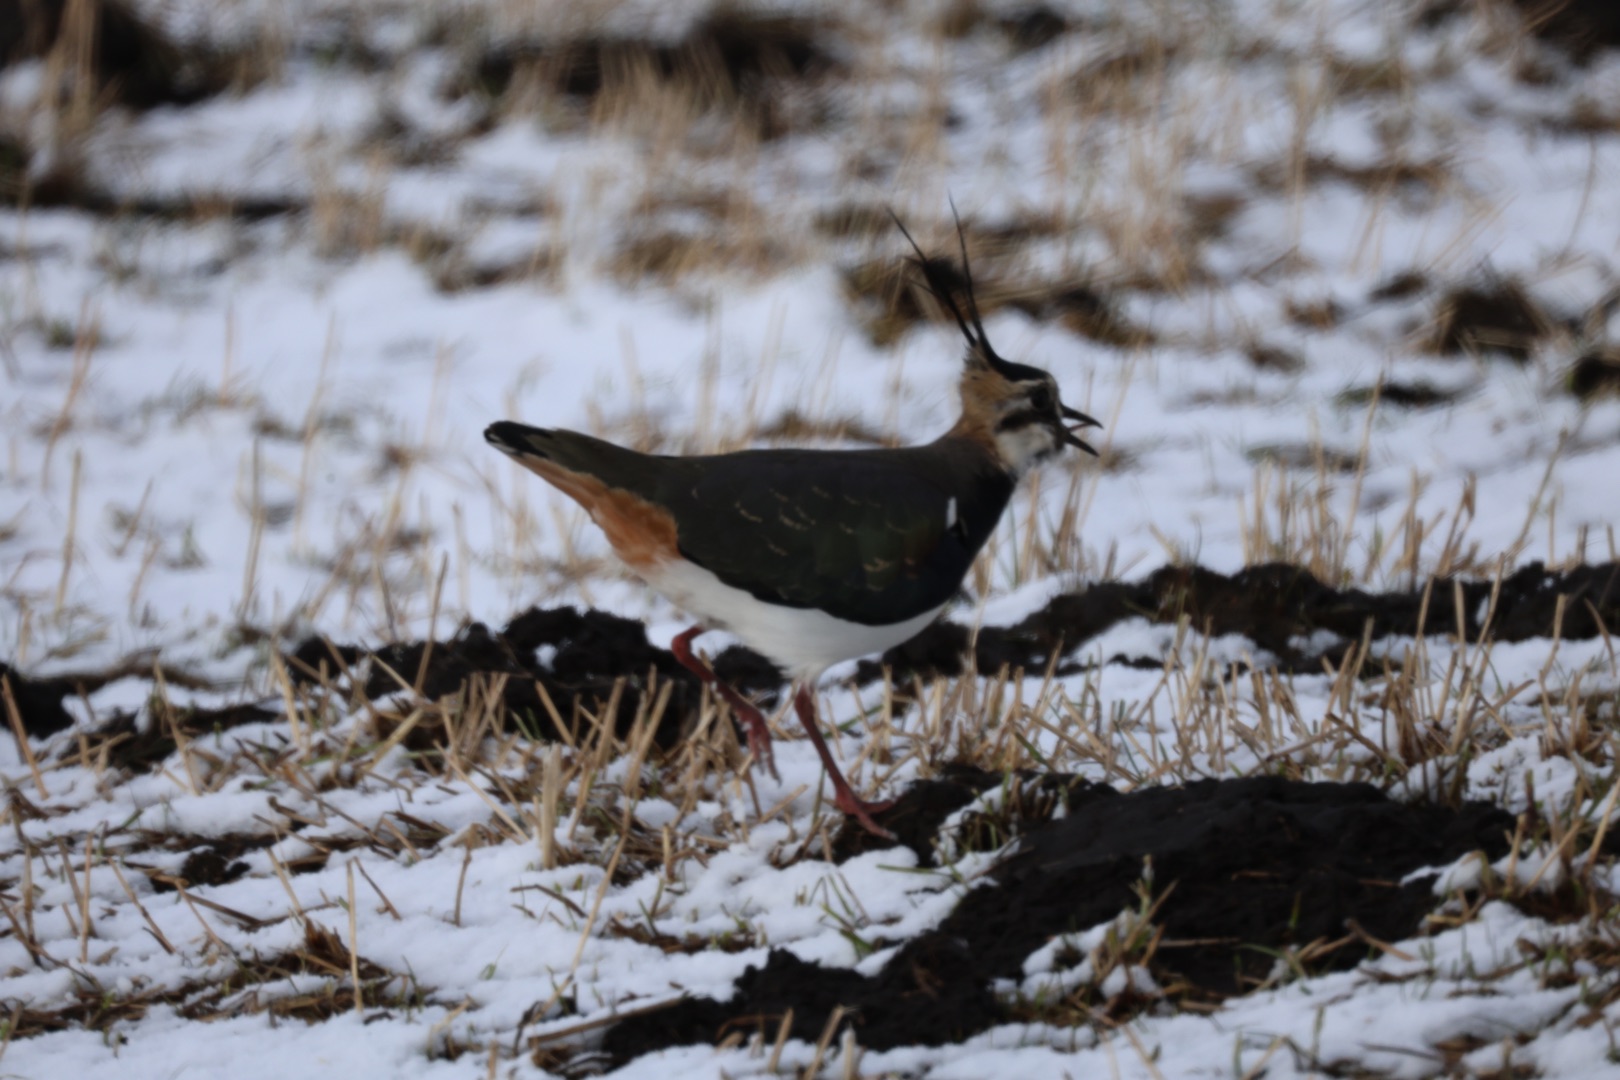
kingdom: Animalia
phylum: Chordata
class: Aves
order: Charadriiformes
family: Charadriidae
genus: Vanellus
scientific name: Vanellus vanellus
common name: Vibe
